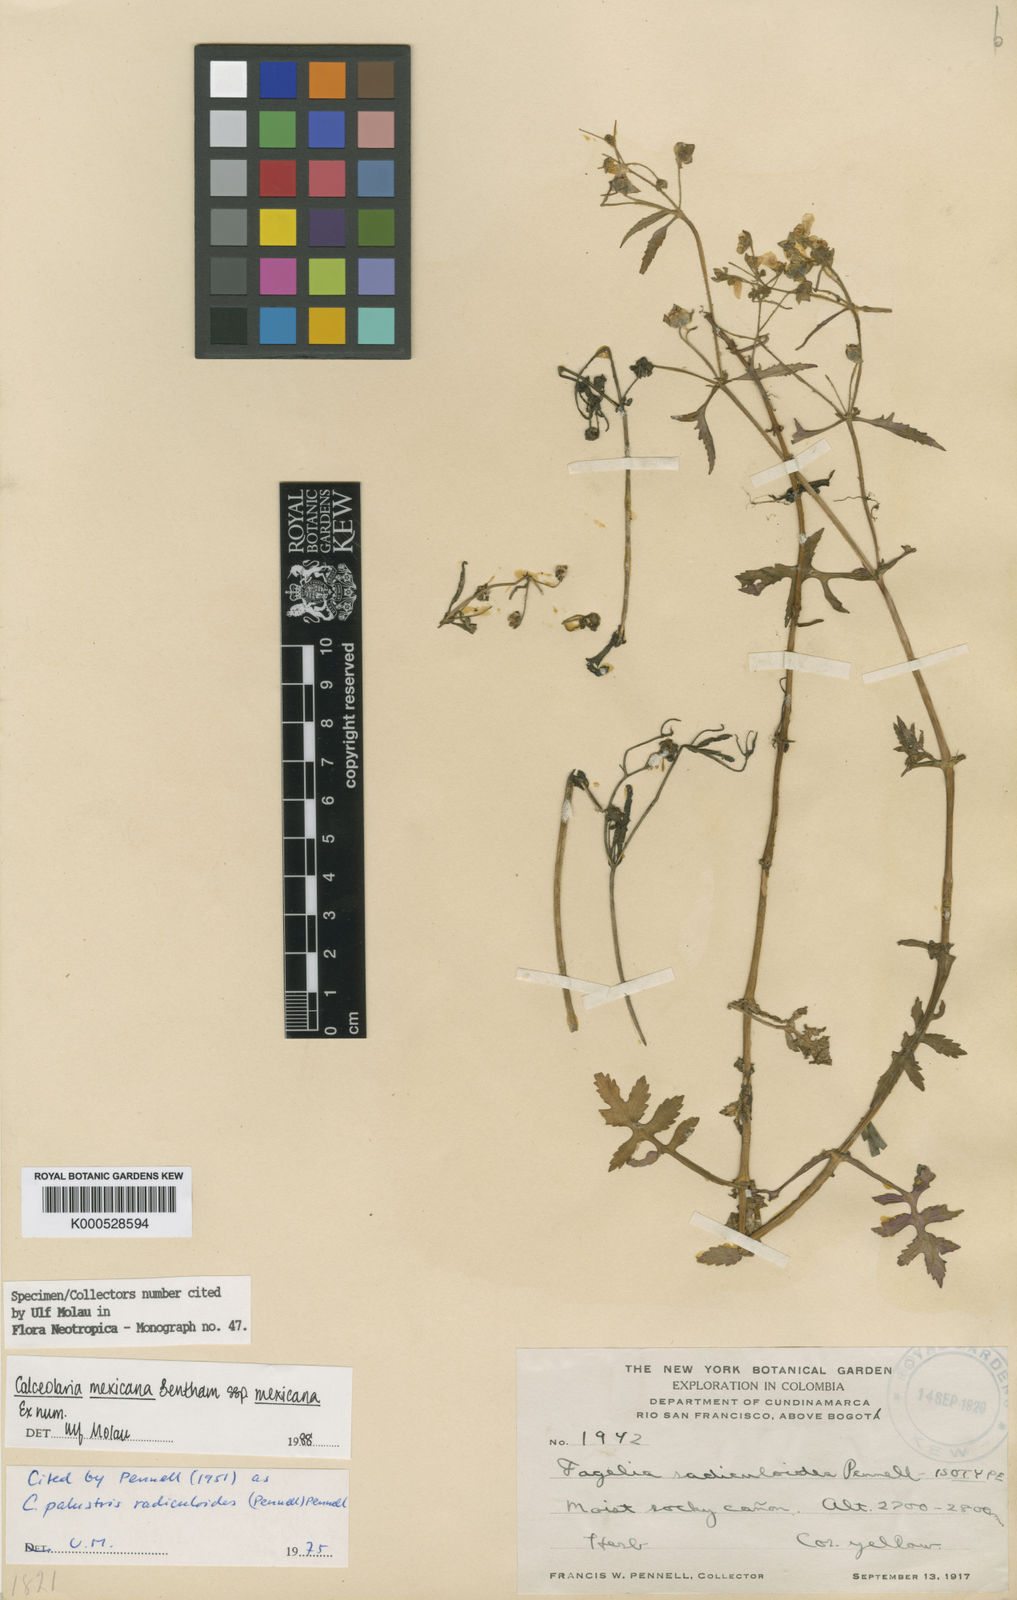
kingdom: Plantae
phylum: Tracheophyta
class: Magnoliopsida
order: Lamiales
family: Calceolariaceae
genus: Calceolaria
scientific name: Calceolaria mexicana
